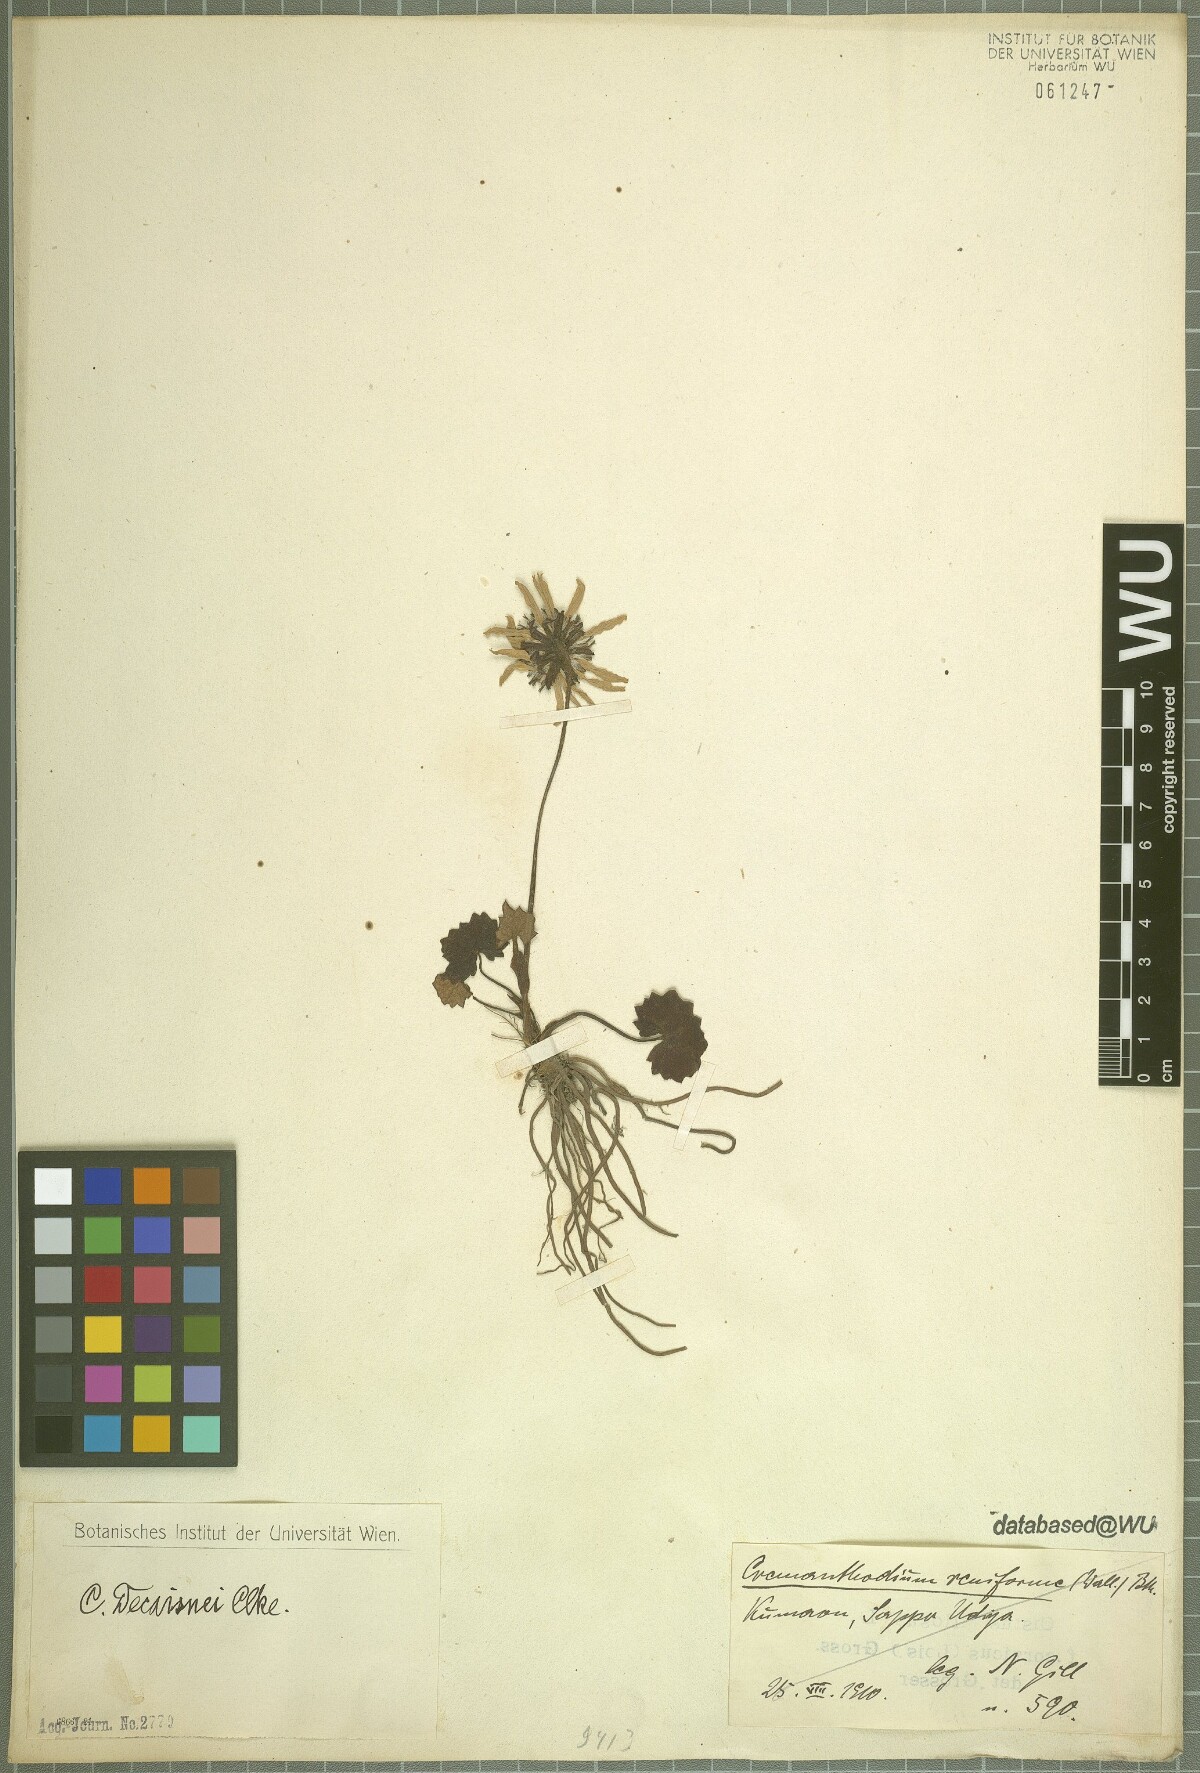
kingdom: Plantae
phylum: Tracheophyta
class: Magnoliopsida
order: Asterales
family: Asteraceae
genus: Cremanthodium
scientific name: Cremanthodium decaisnei
